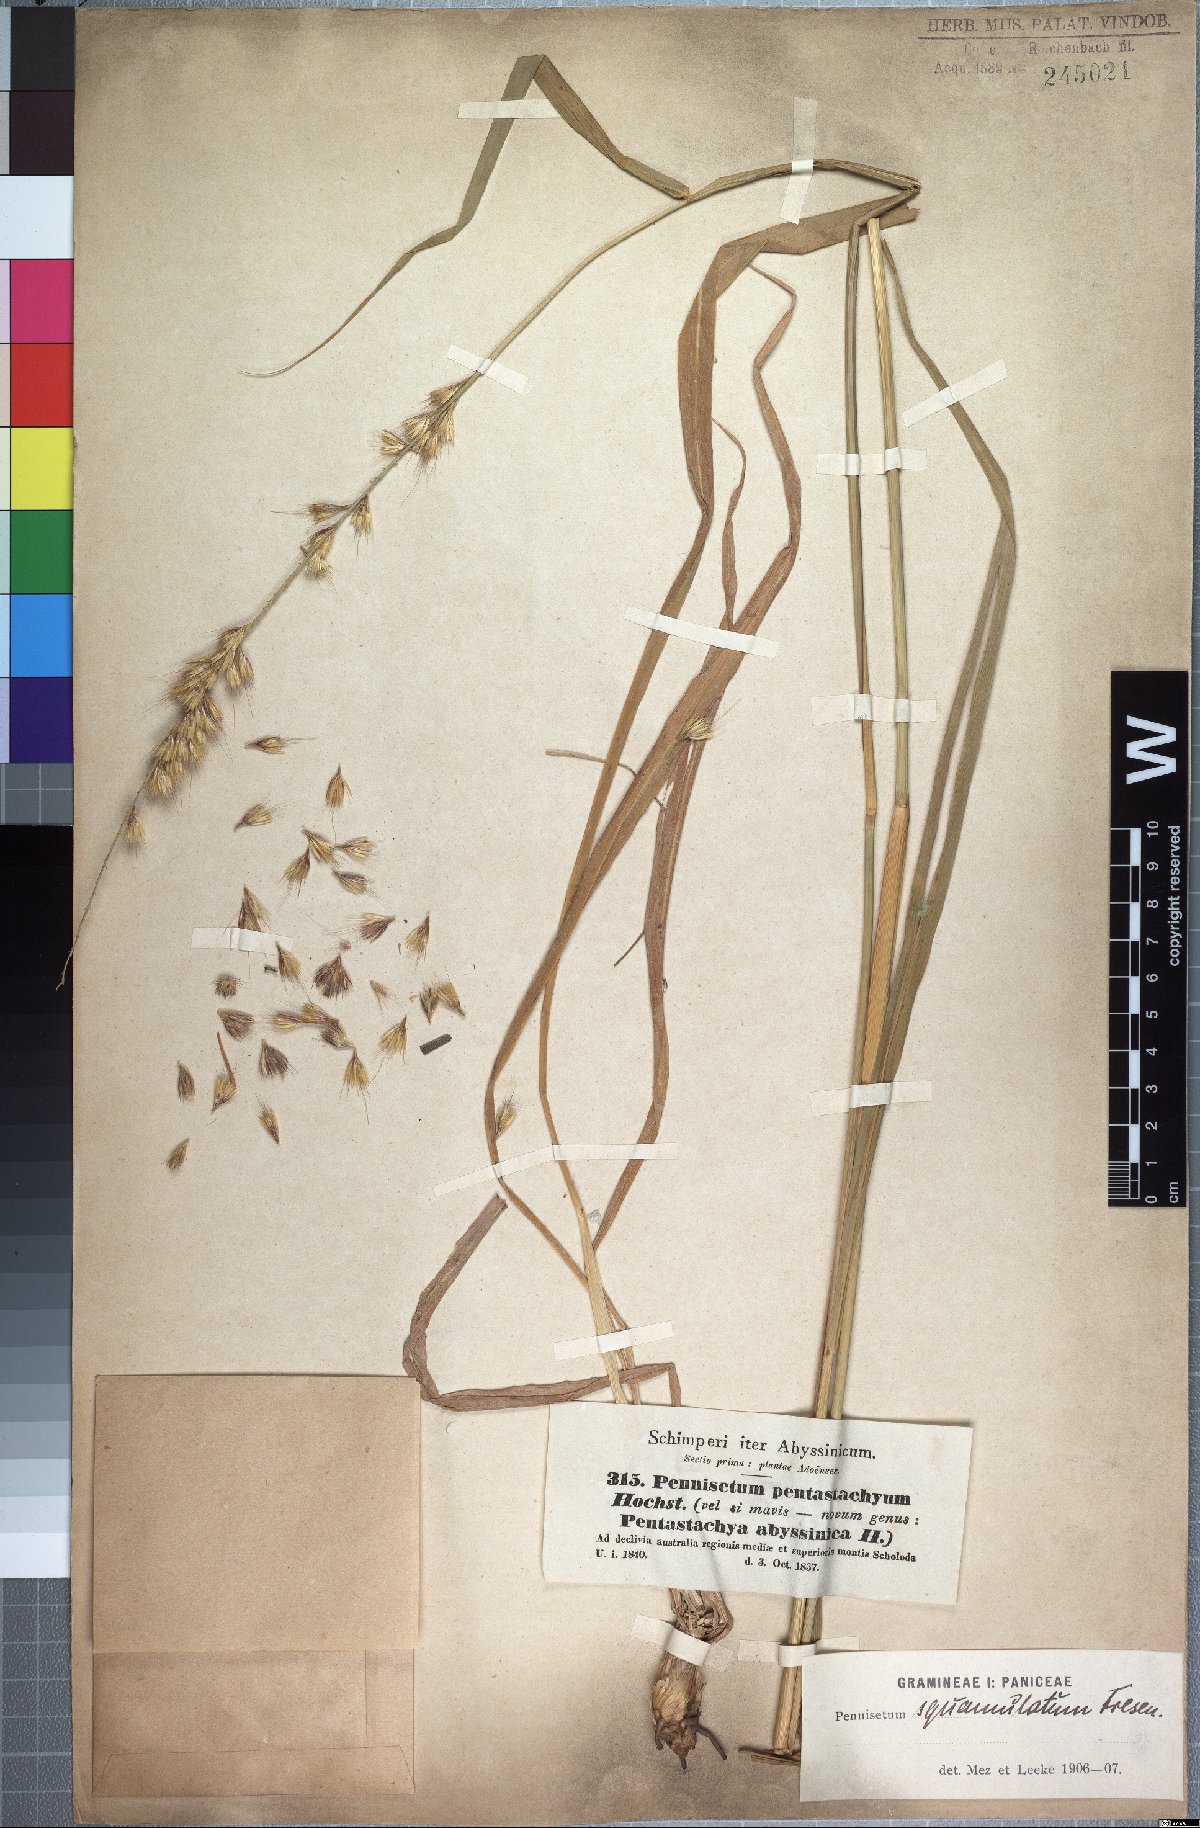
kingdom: Plantae
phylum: Tracheophyta
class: Liliopsida
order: Poales
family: Poaceae
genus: Cenchrus
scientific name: Cenchrus squamulatus
